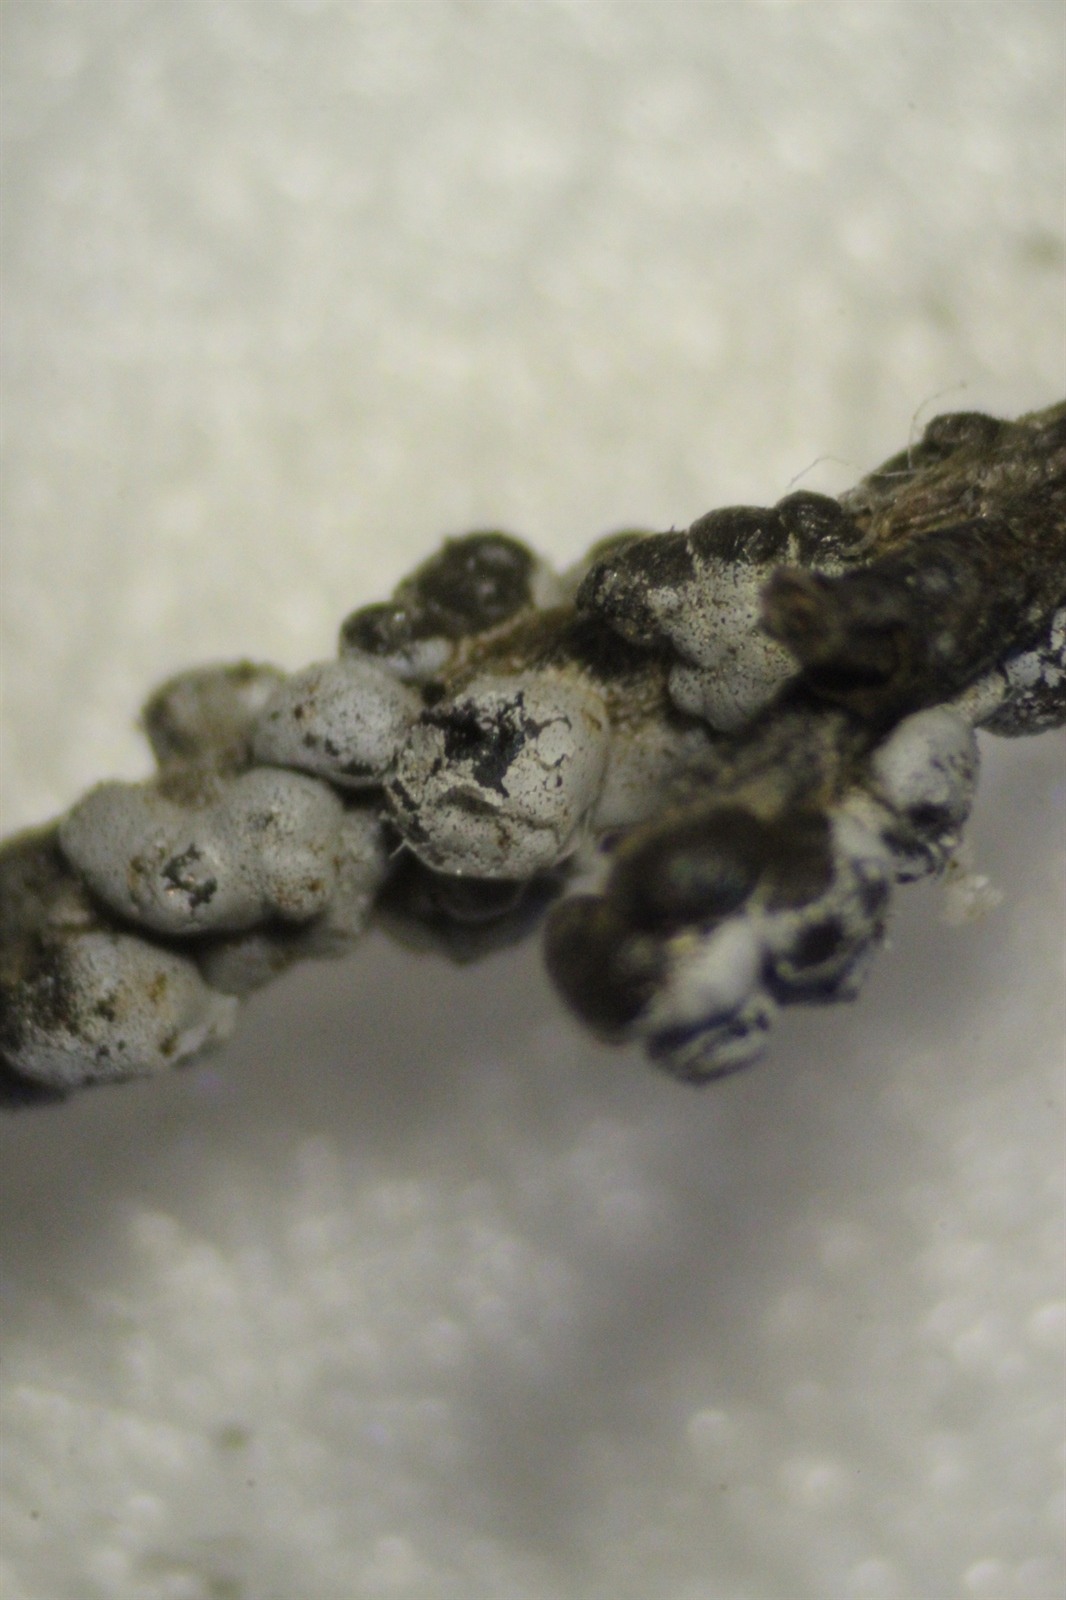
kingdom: Protozoa
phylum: Mycetozoa
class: Myxomycetes
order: Physarales
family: Didymiaceae
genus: Polyschismium
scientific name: Polyschismium chailletii
